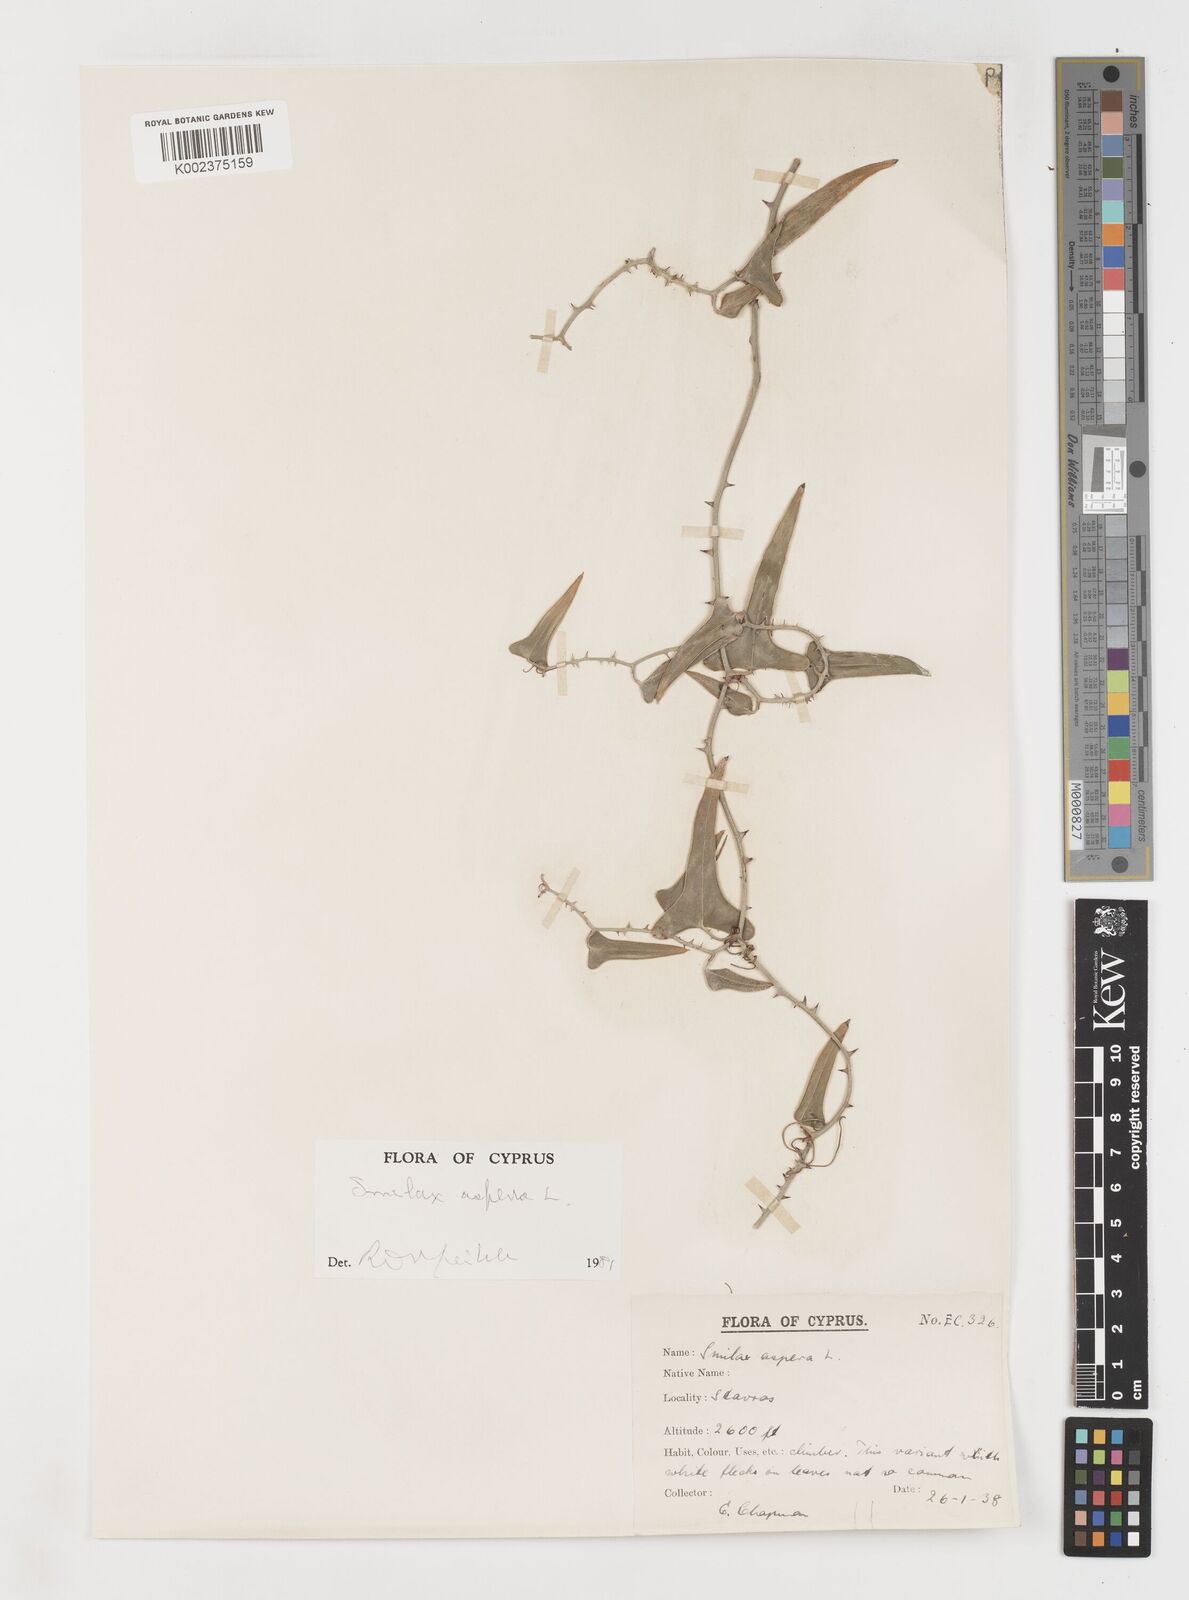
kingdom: Plantae
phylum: Tracheophyta
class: Liliopsida
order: Liliales
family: Smilacaceae
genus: Smilax
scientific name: Smilax aspera
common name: Common smilax
